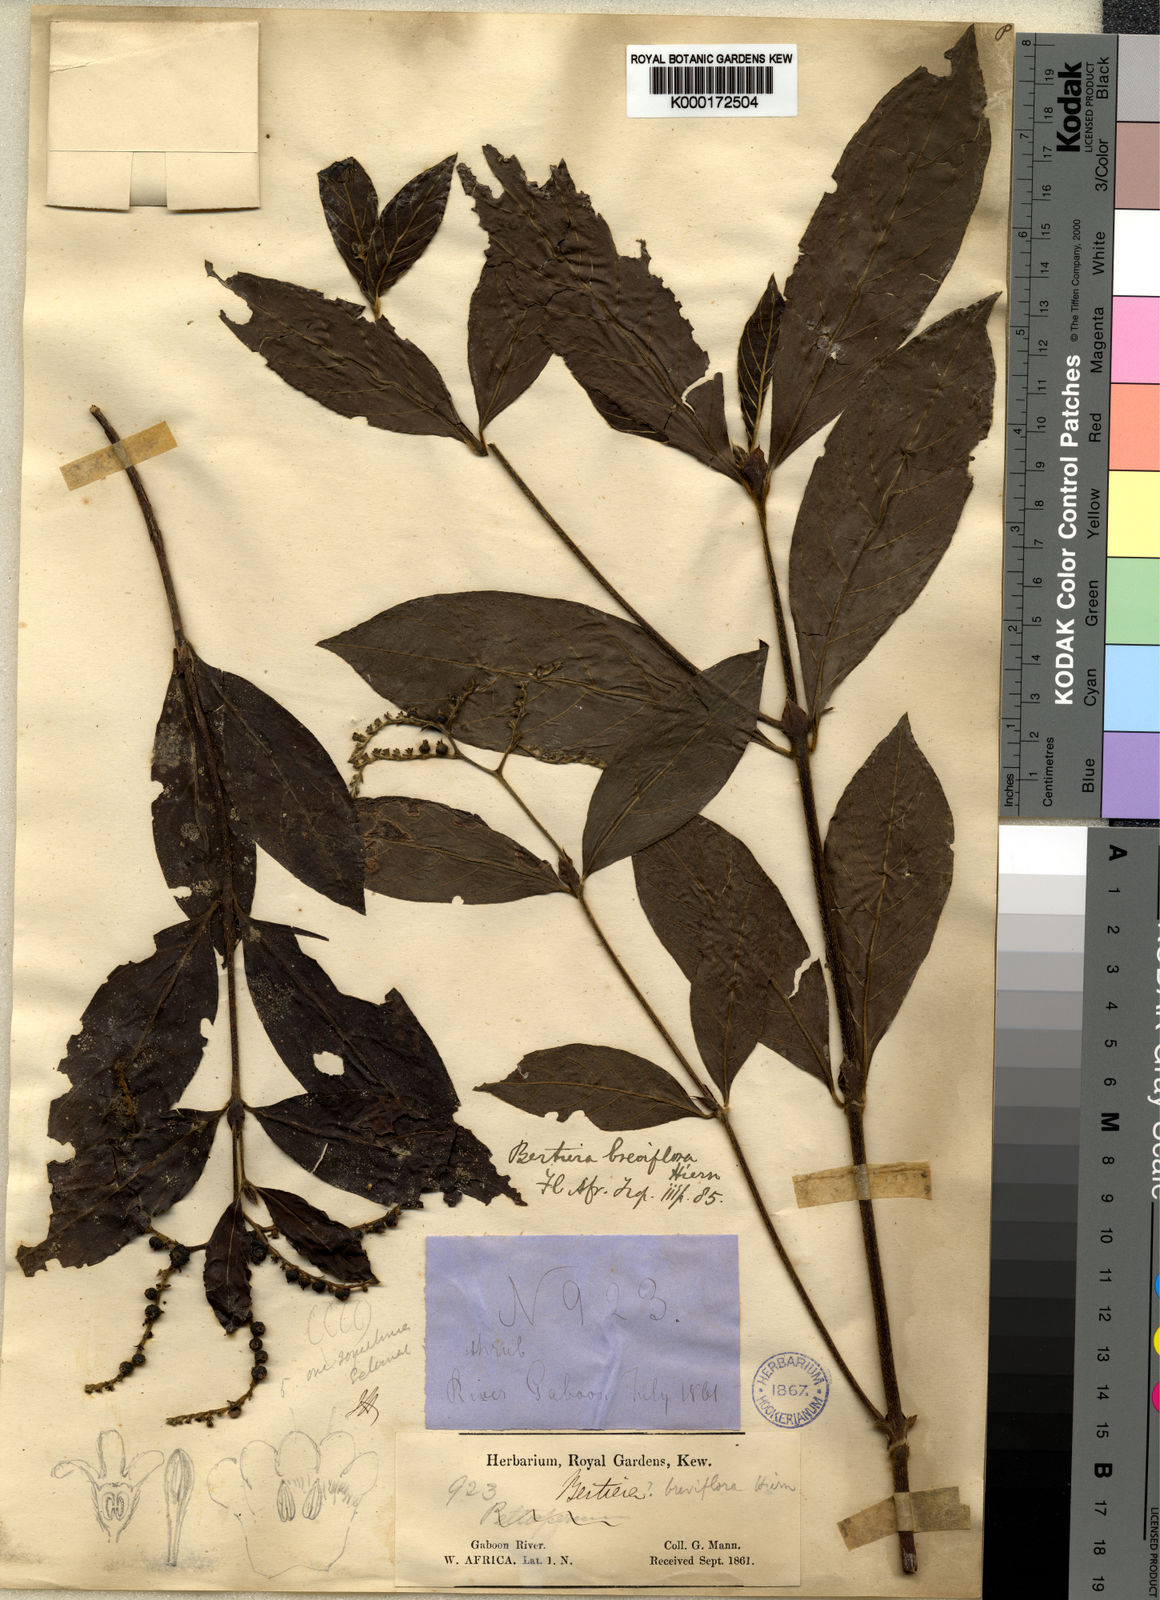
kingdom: Plantae
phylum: Tracheophyta
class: Magnoliopsida
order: Gentianales
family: Rubiaceae
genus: Bertiera
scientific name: Bertiera breviflora
